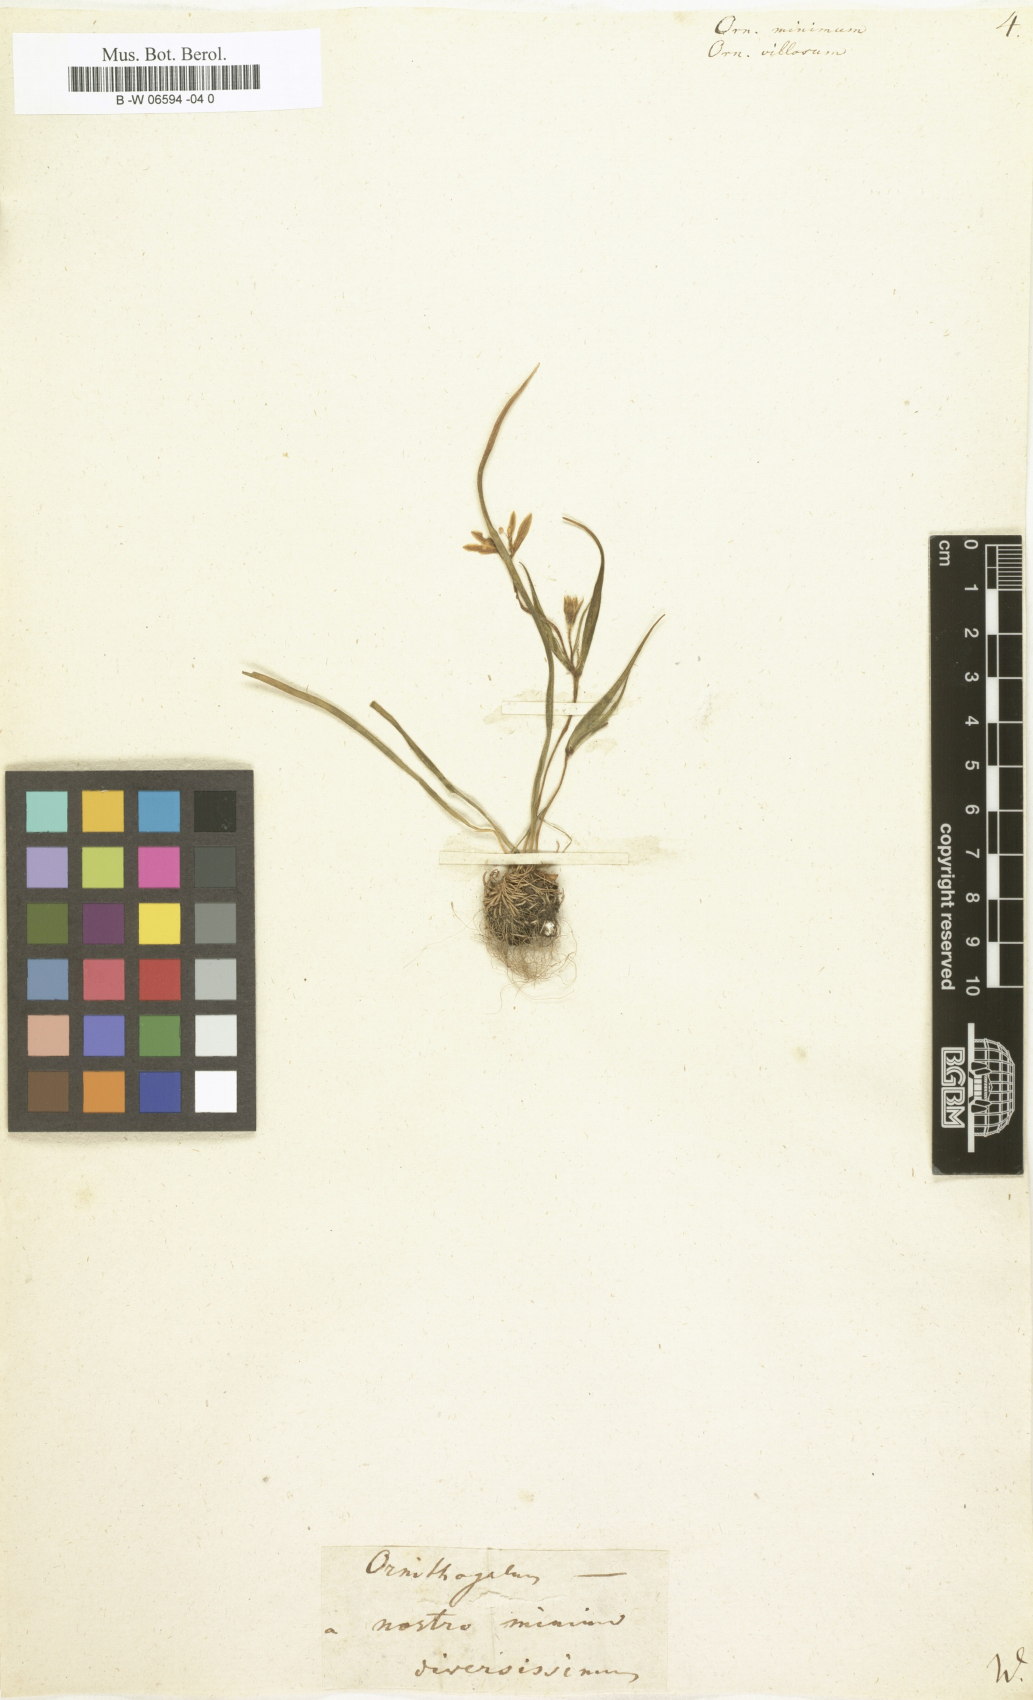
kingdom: Plantae
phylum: Tracheophyta
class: Liliopsida
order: Liliales
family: Liliaceae
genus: Gagea
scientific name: Gagea minima
